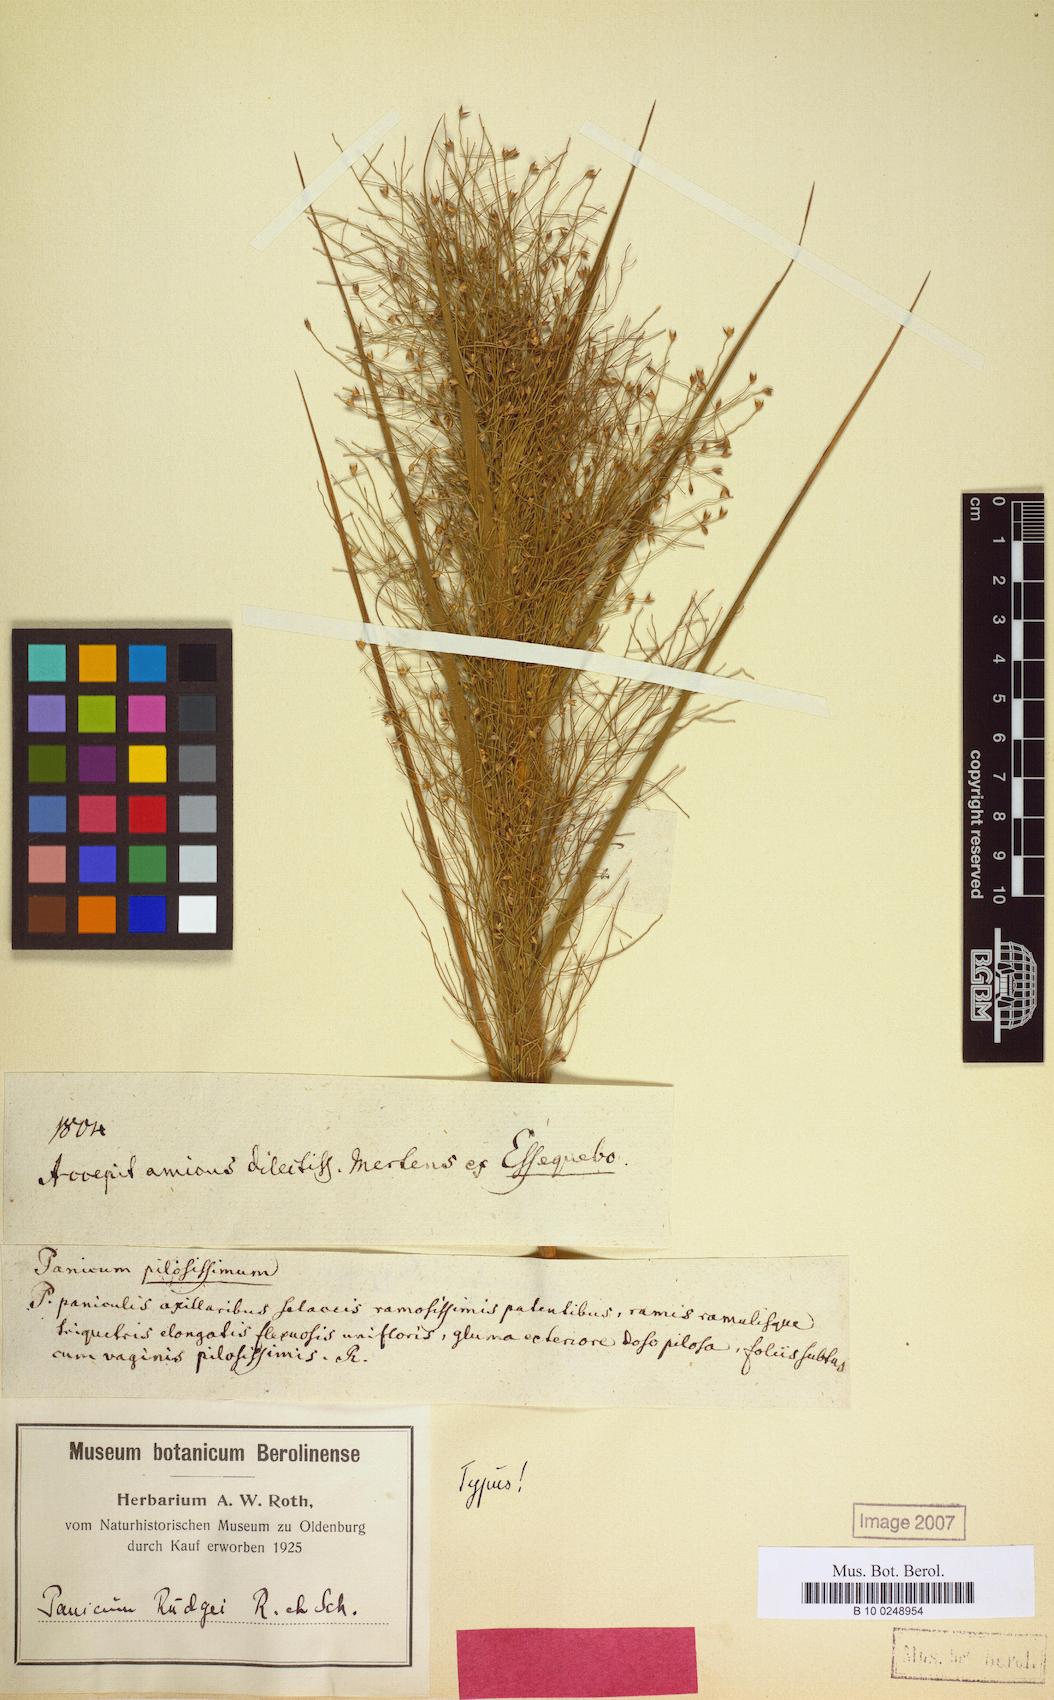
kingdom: Plantae
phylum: Tracheophyta
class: Liliopsida
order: Poales
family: Poaceae
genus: Panicum
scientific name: Panicum rudgei
